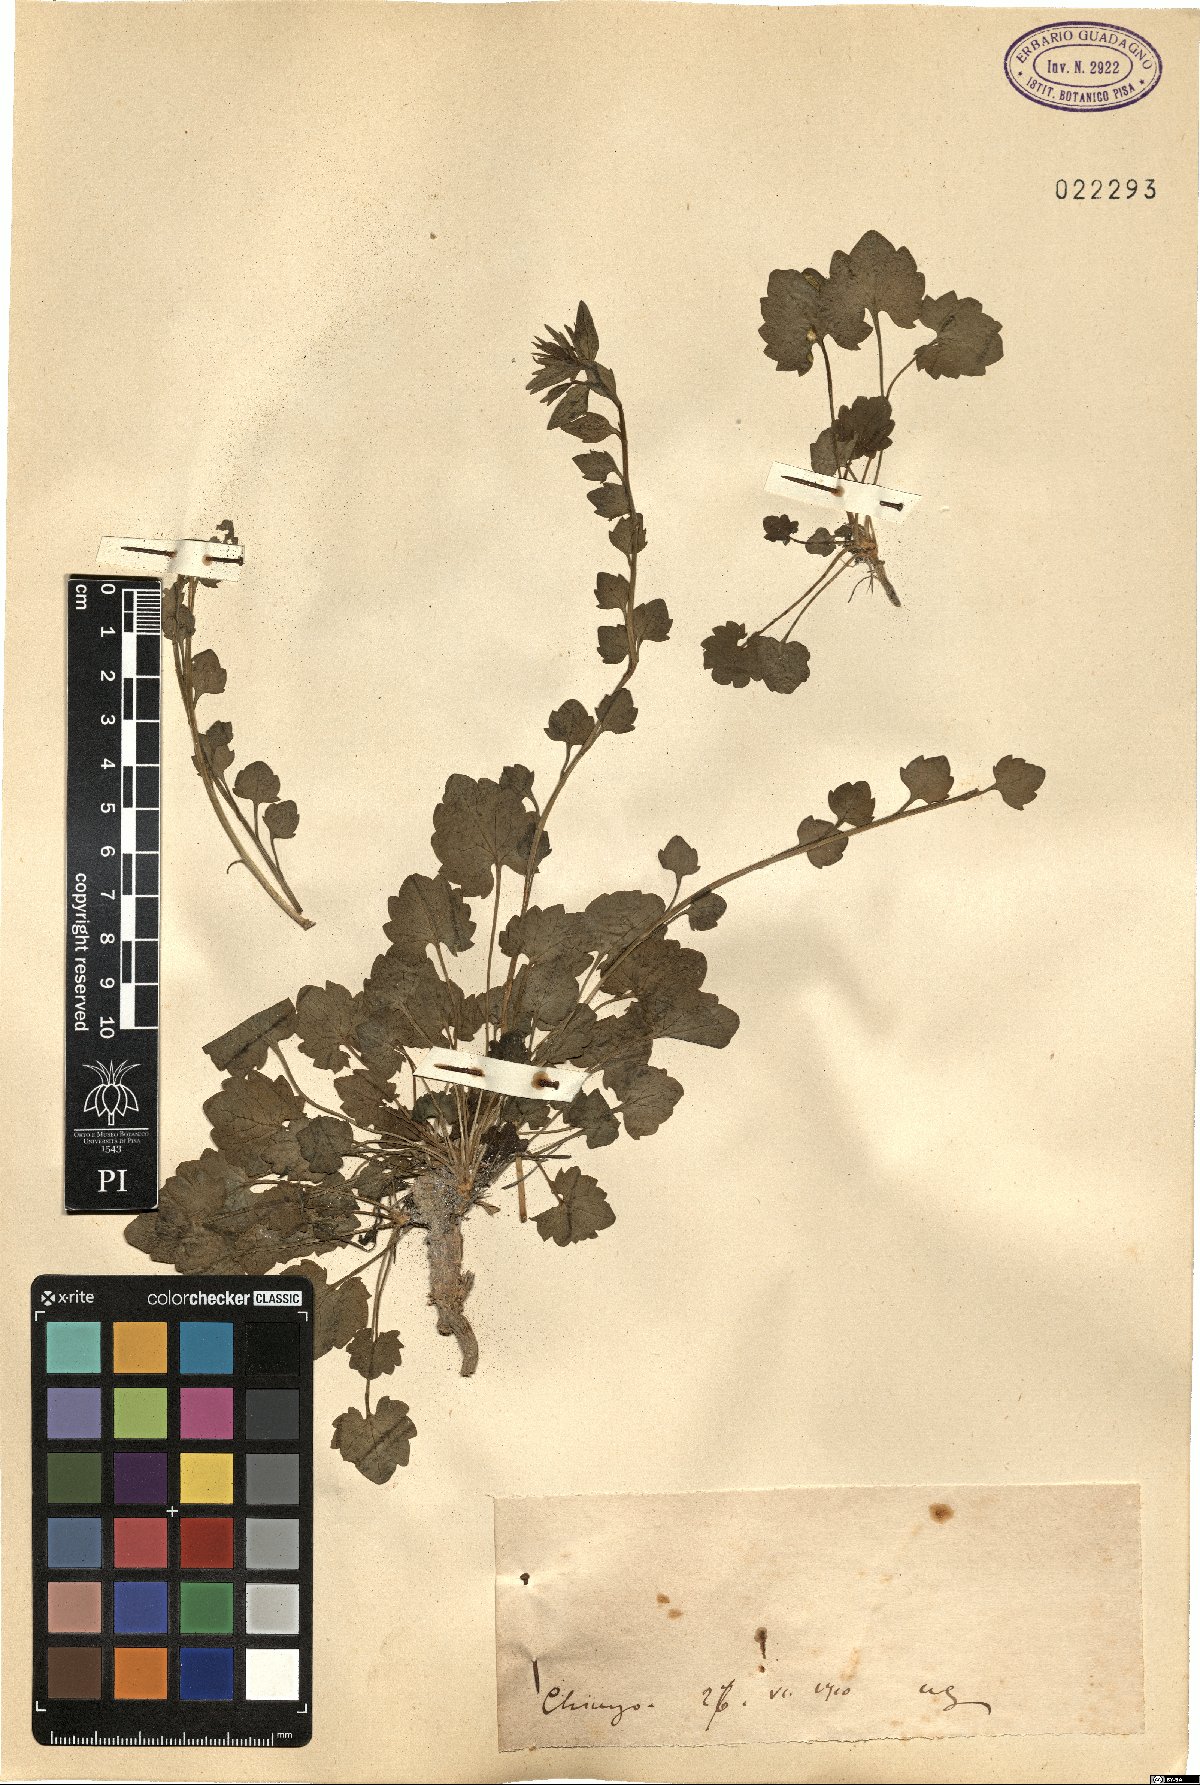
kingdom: Plantae
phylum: Tracheophyta
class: Magnoliopsida
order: Asterales
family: Campanulaceae
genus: Campanula
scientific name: Campanula
